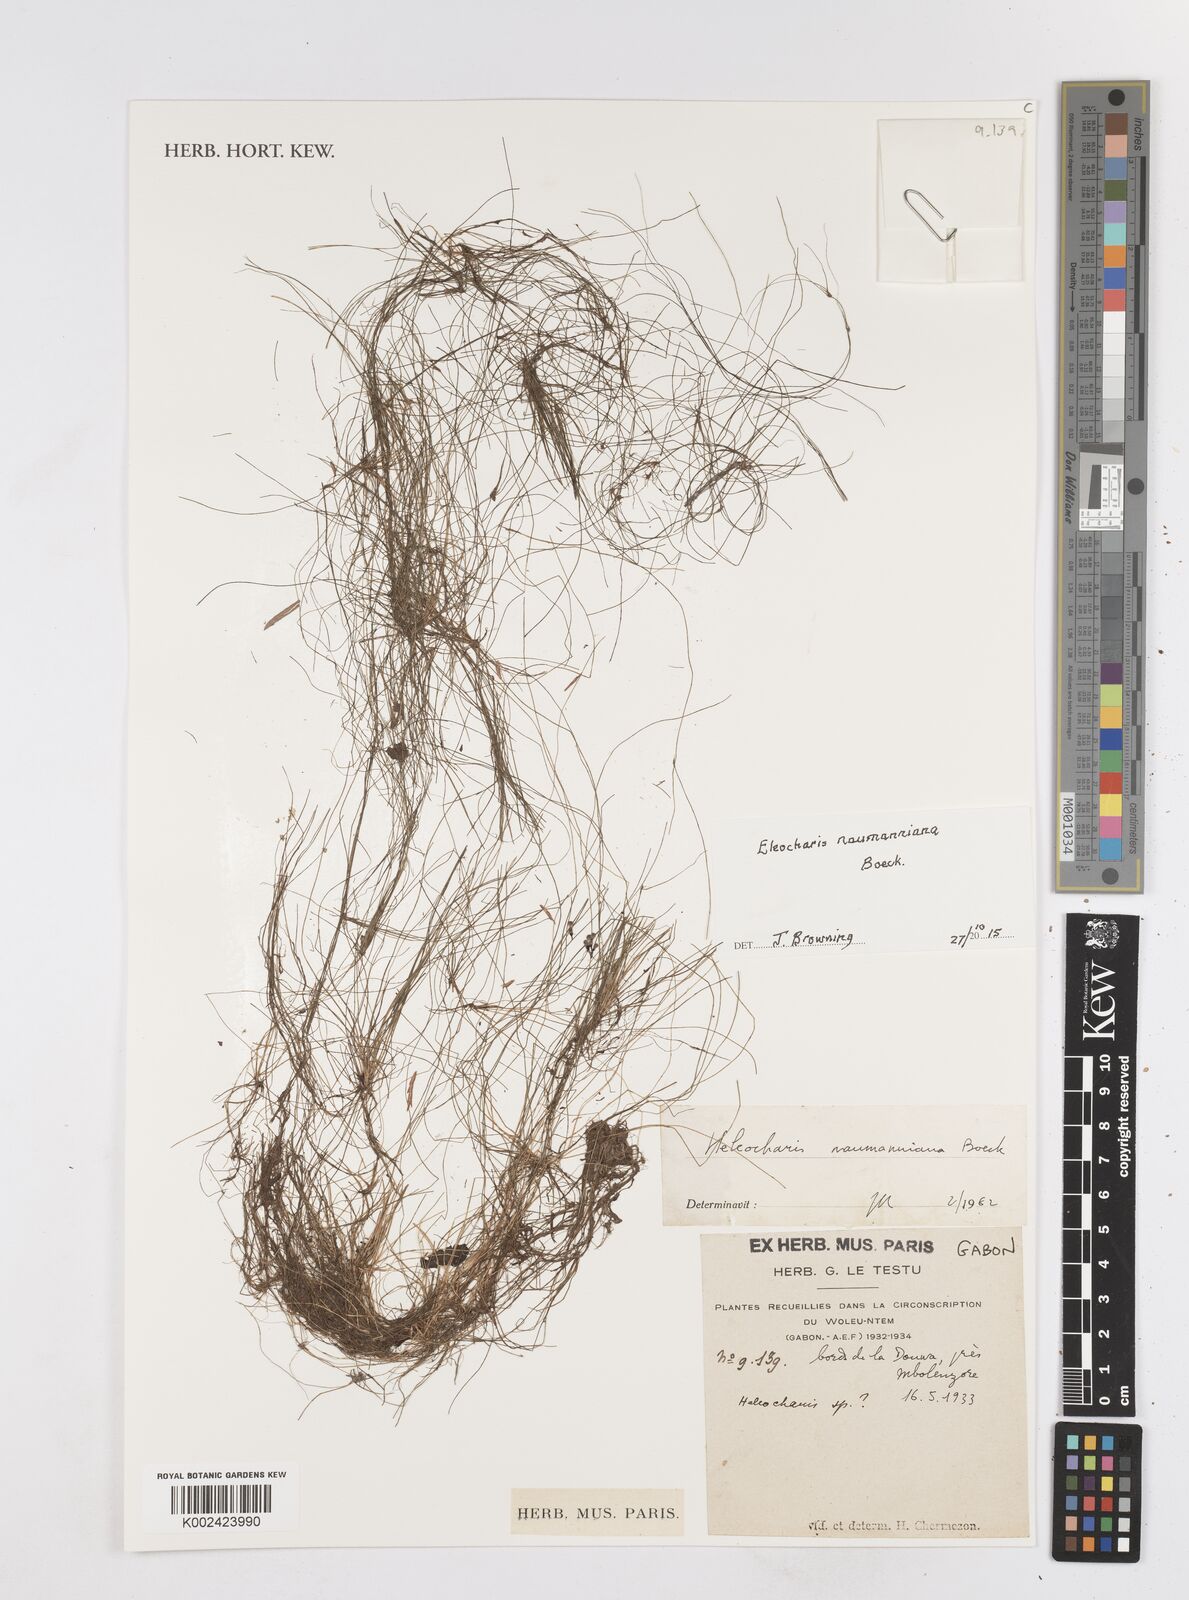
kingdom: Plantae
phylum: Tracheophyta
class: Liliopsida
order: Poales
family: Cyperaceae
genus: Eleocharis
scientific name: Eleocharis naumanniana
